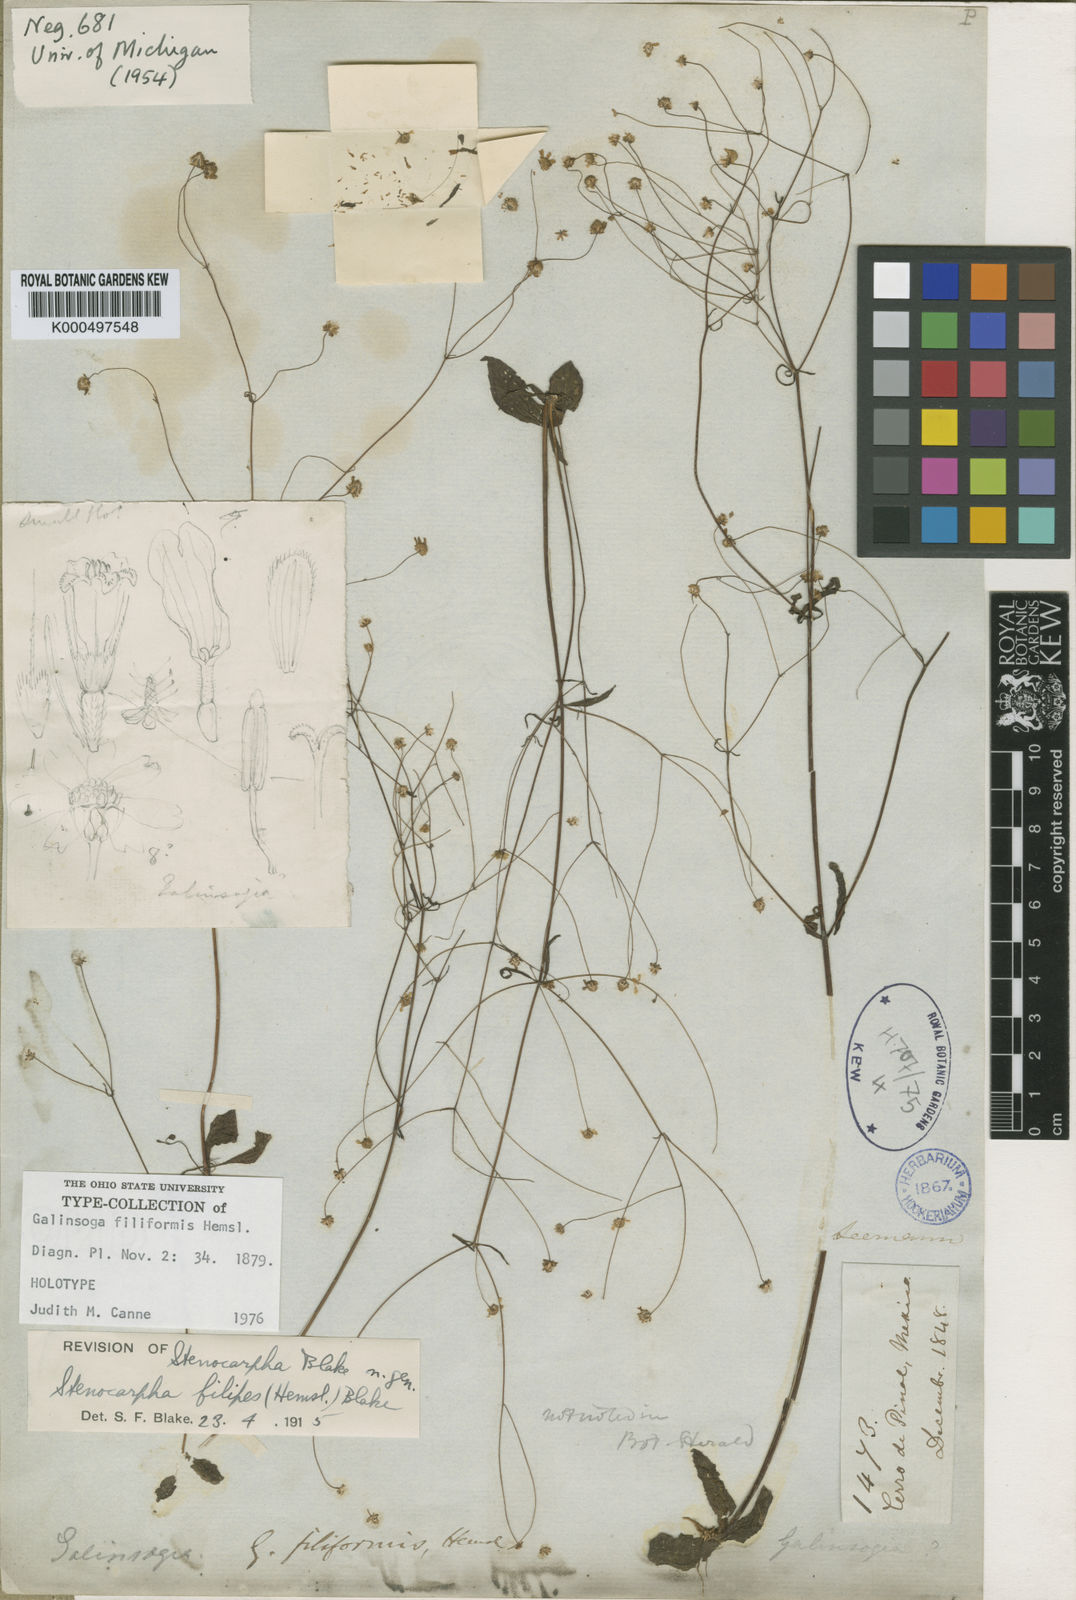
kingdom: Plantae
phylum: Tracheophyta
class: Magnoliopsida
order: Asterales
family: Asteraceae
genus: Stenocarpha
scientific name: Stenocarpha filiformis
